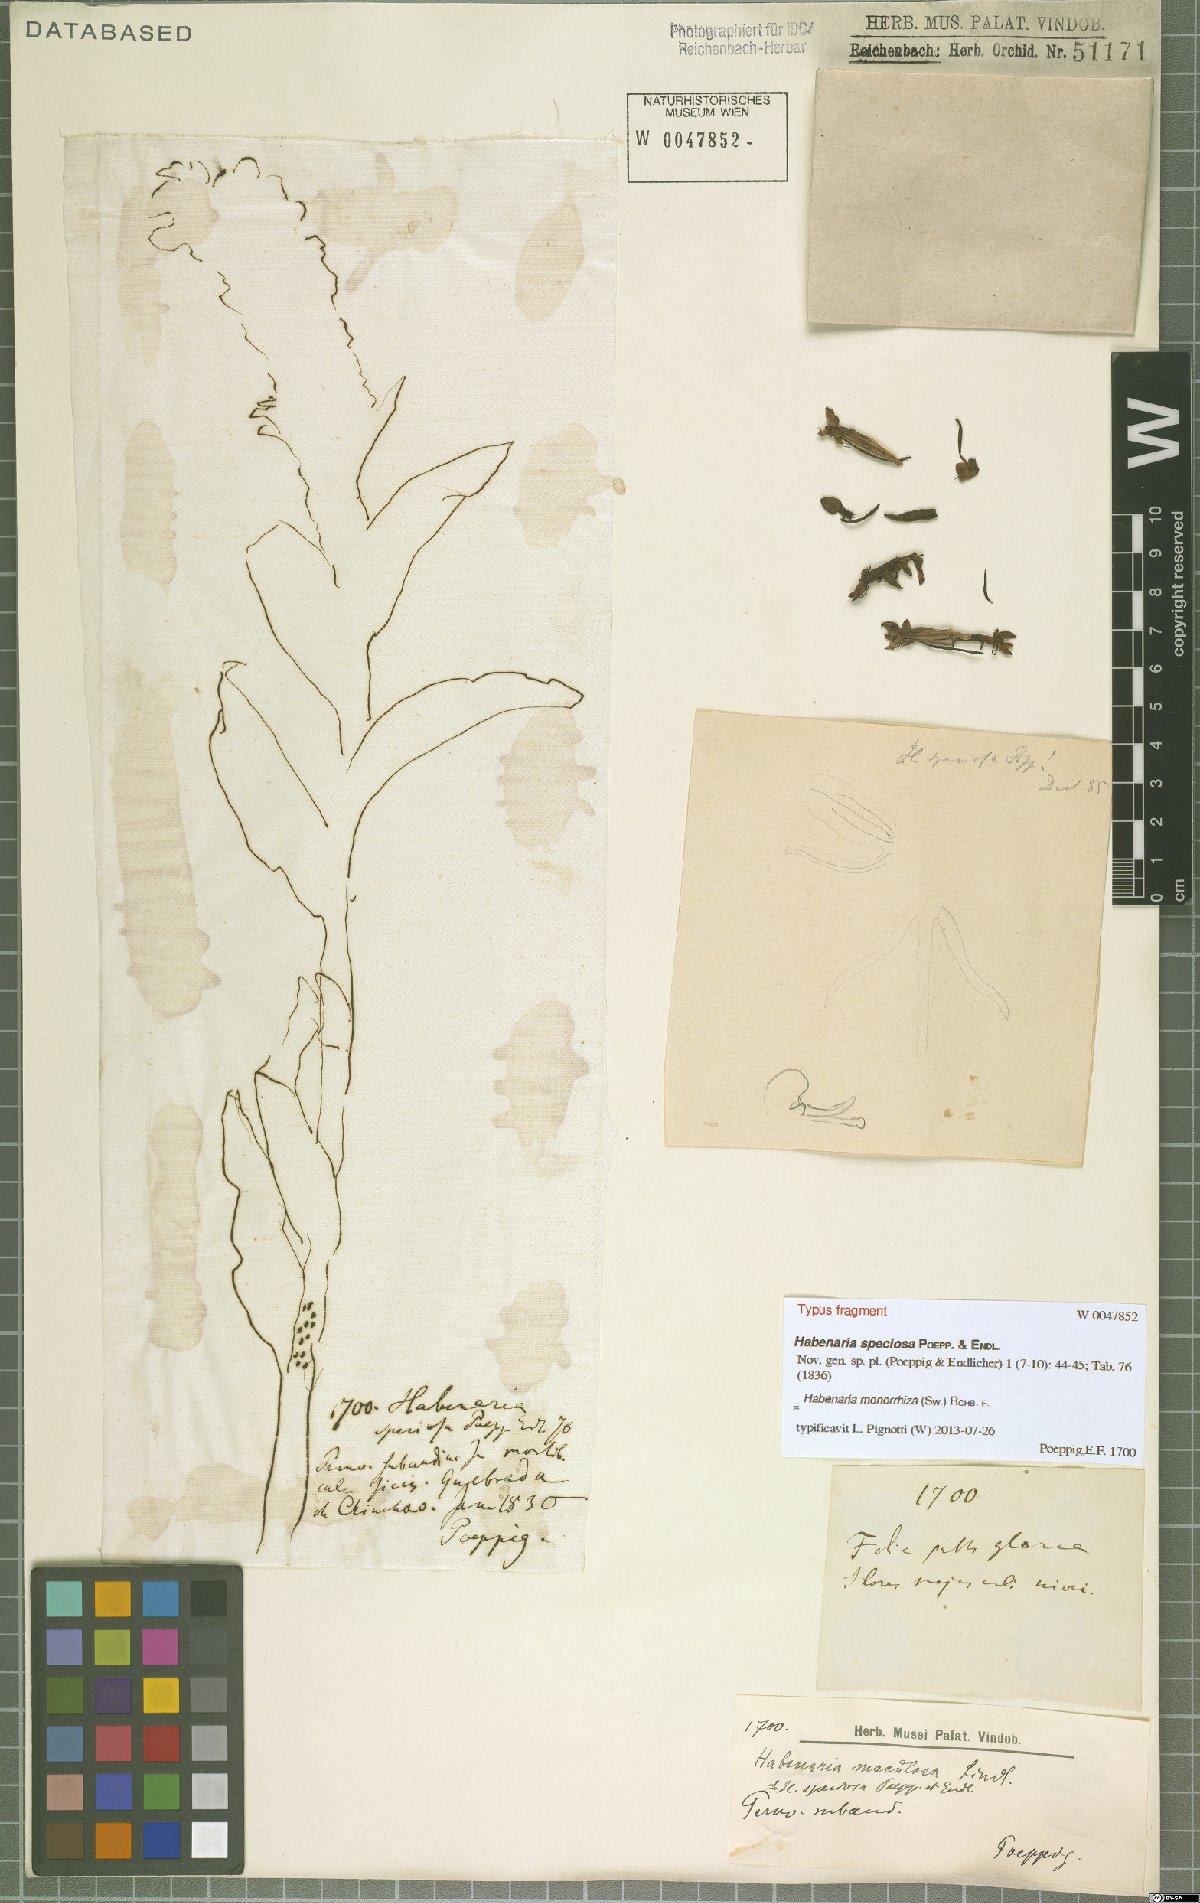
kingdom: Plantae
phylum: Tracheophyta
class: Liliopsida
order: Asparagales
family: Orchidaceae
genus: Habenaria
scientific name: Habenaria monorrhiza
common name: Tropical bog orchid
